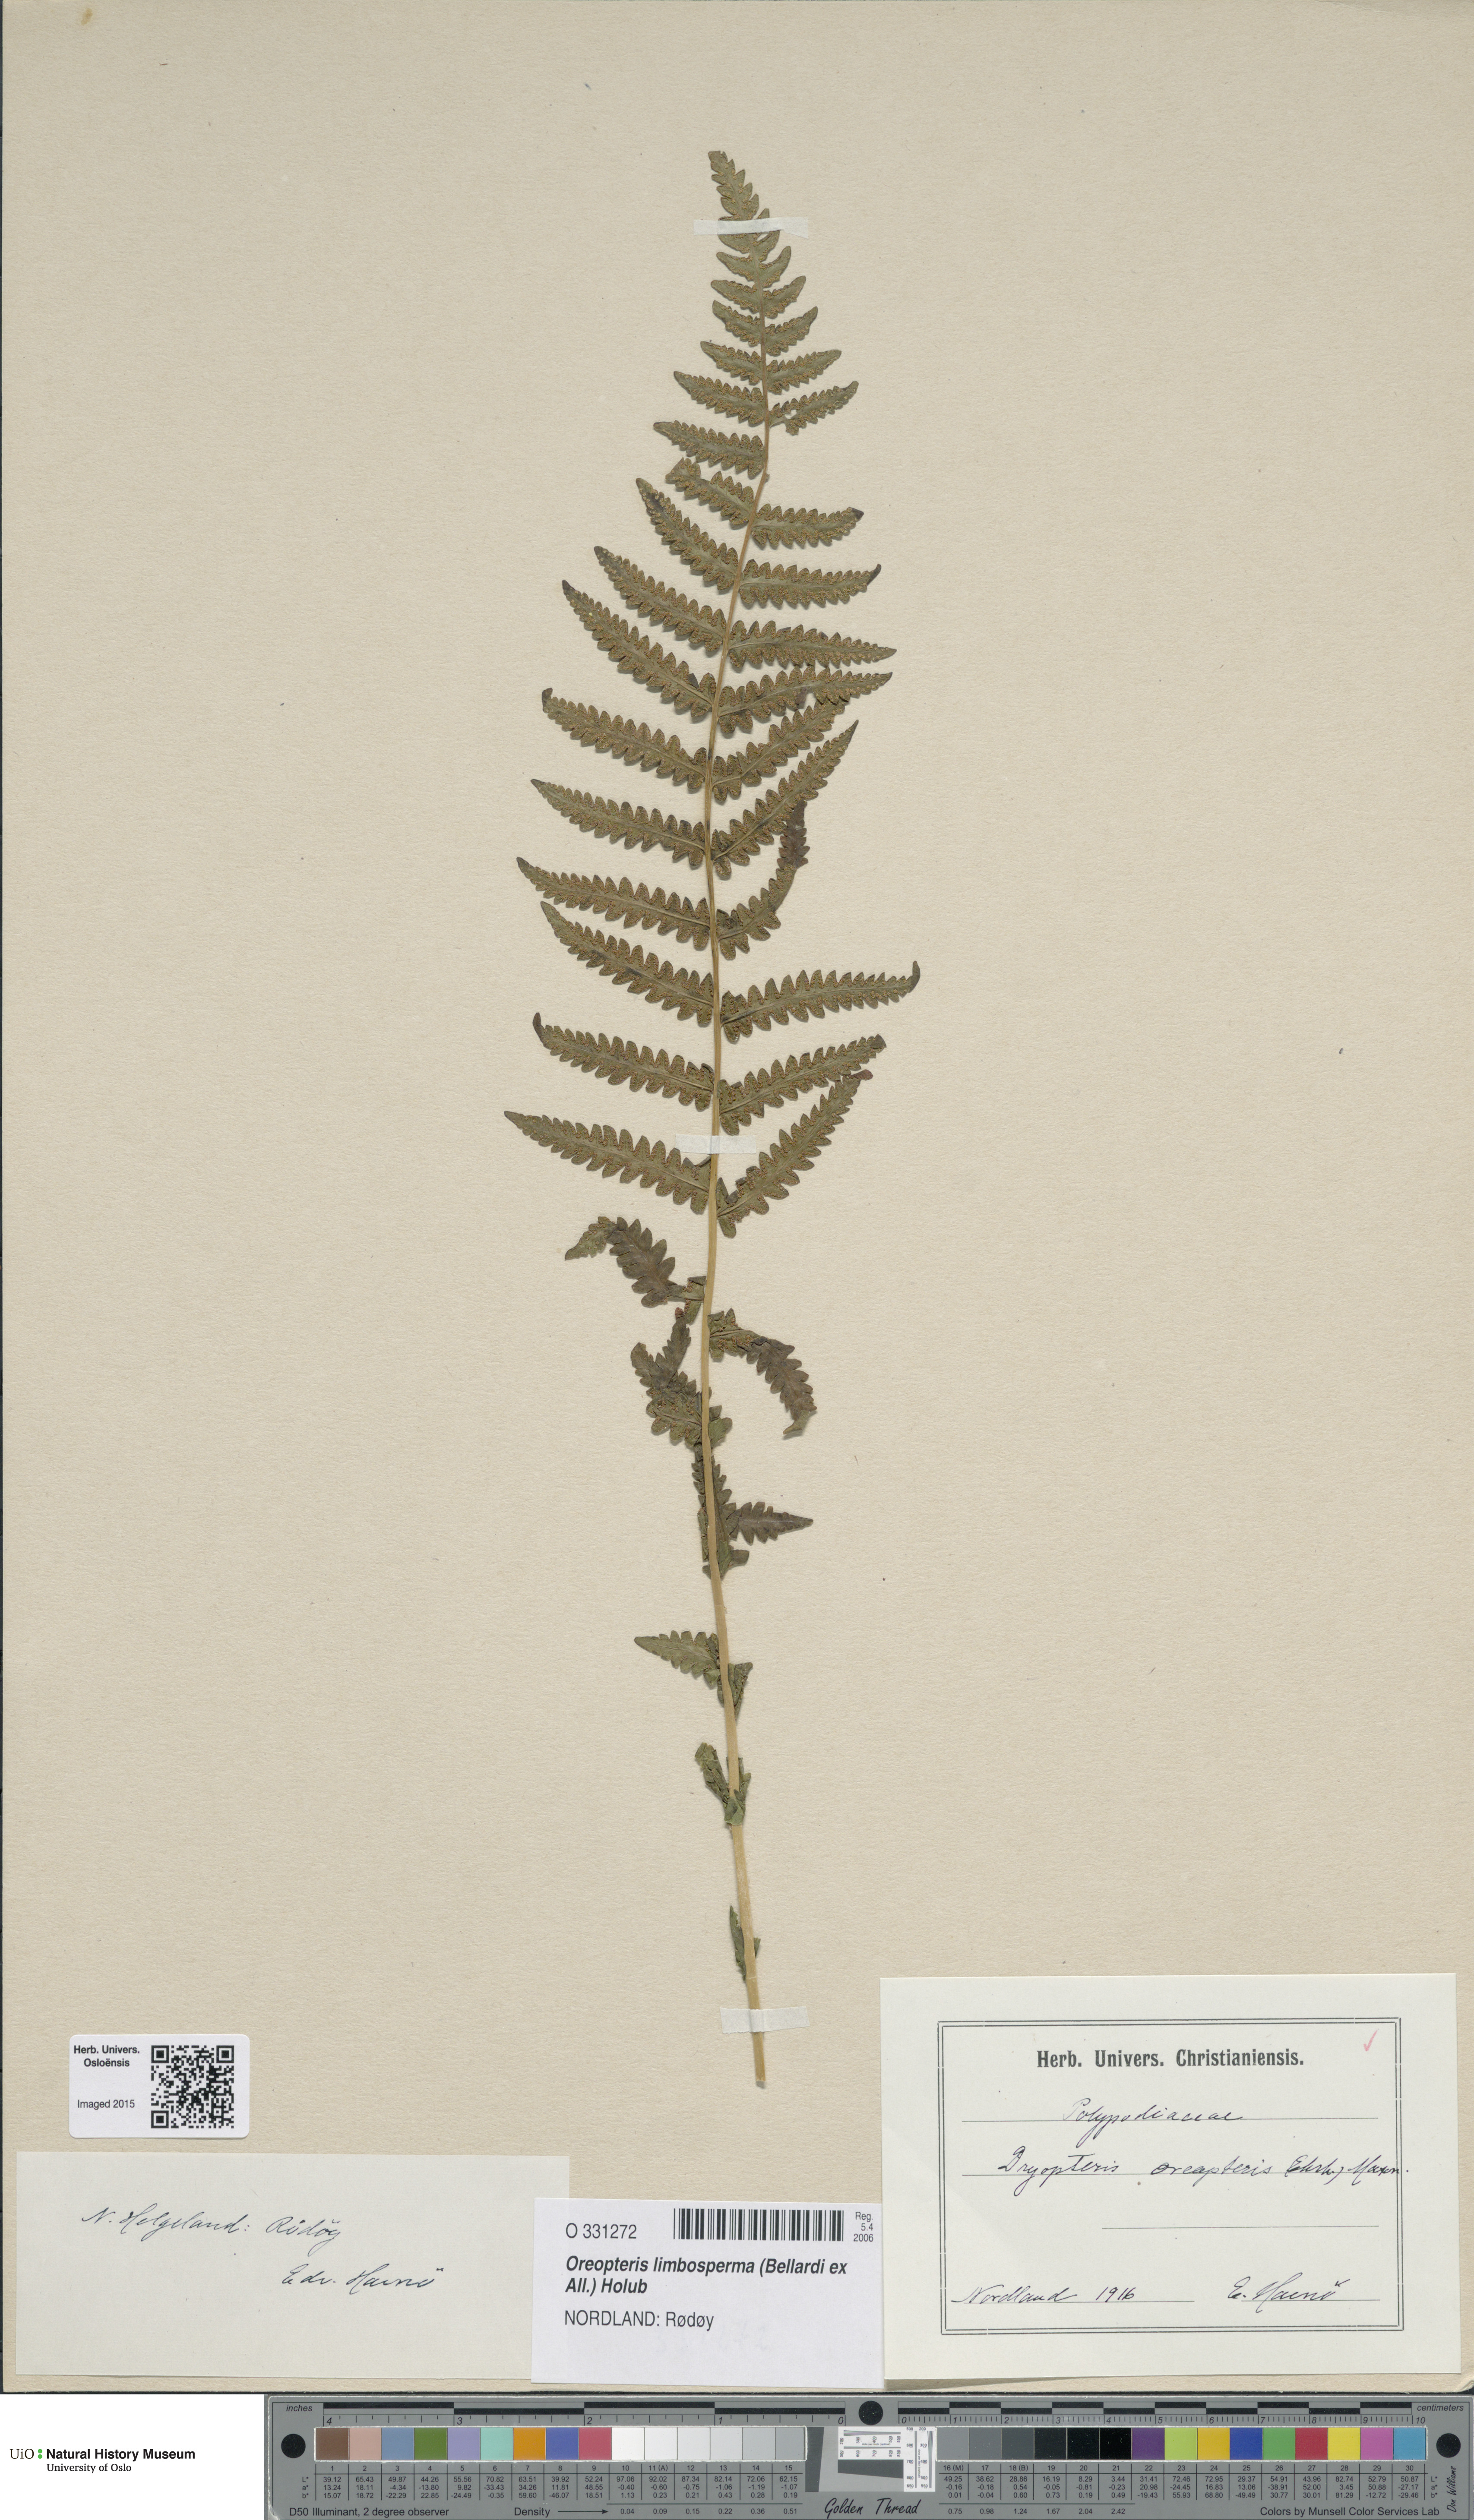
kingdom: Plantae
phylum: Tracheophyta
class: Polypodiopsida
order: Polypodiales
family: Thelypteridaceae
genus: Oreopteris
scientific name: Oreopteris limbosperma
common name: Lemon-scented fern
